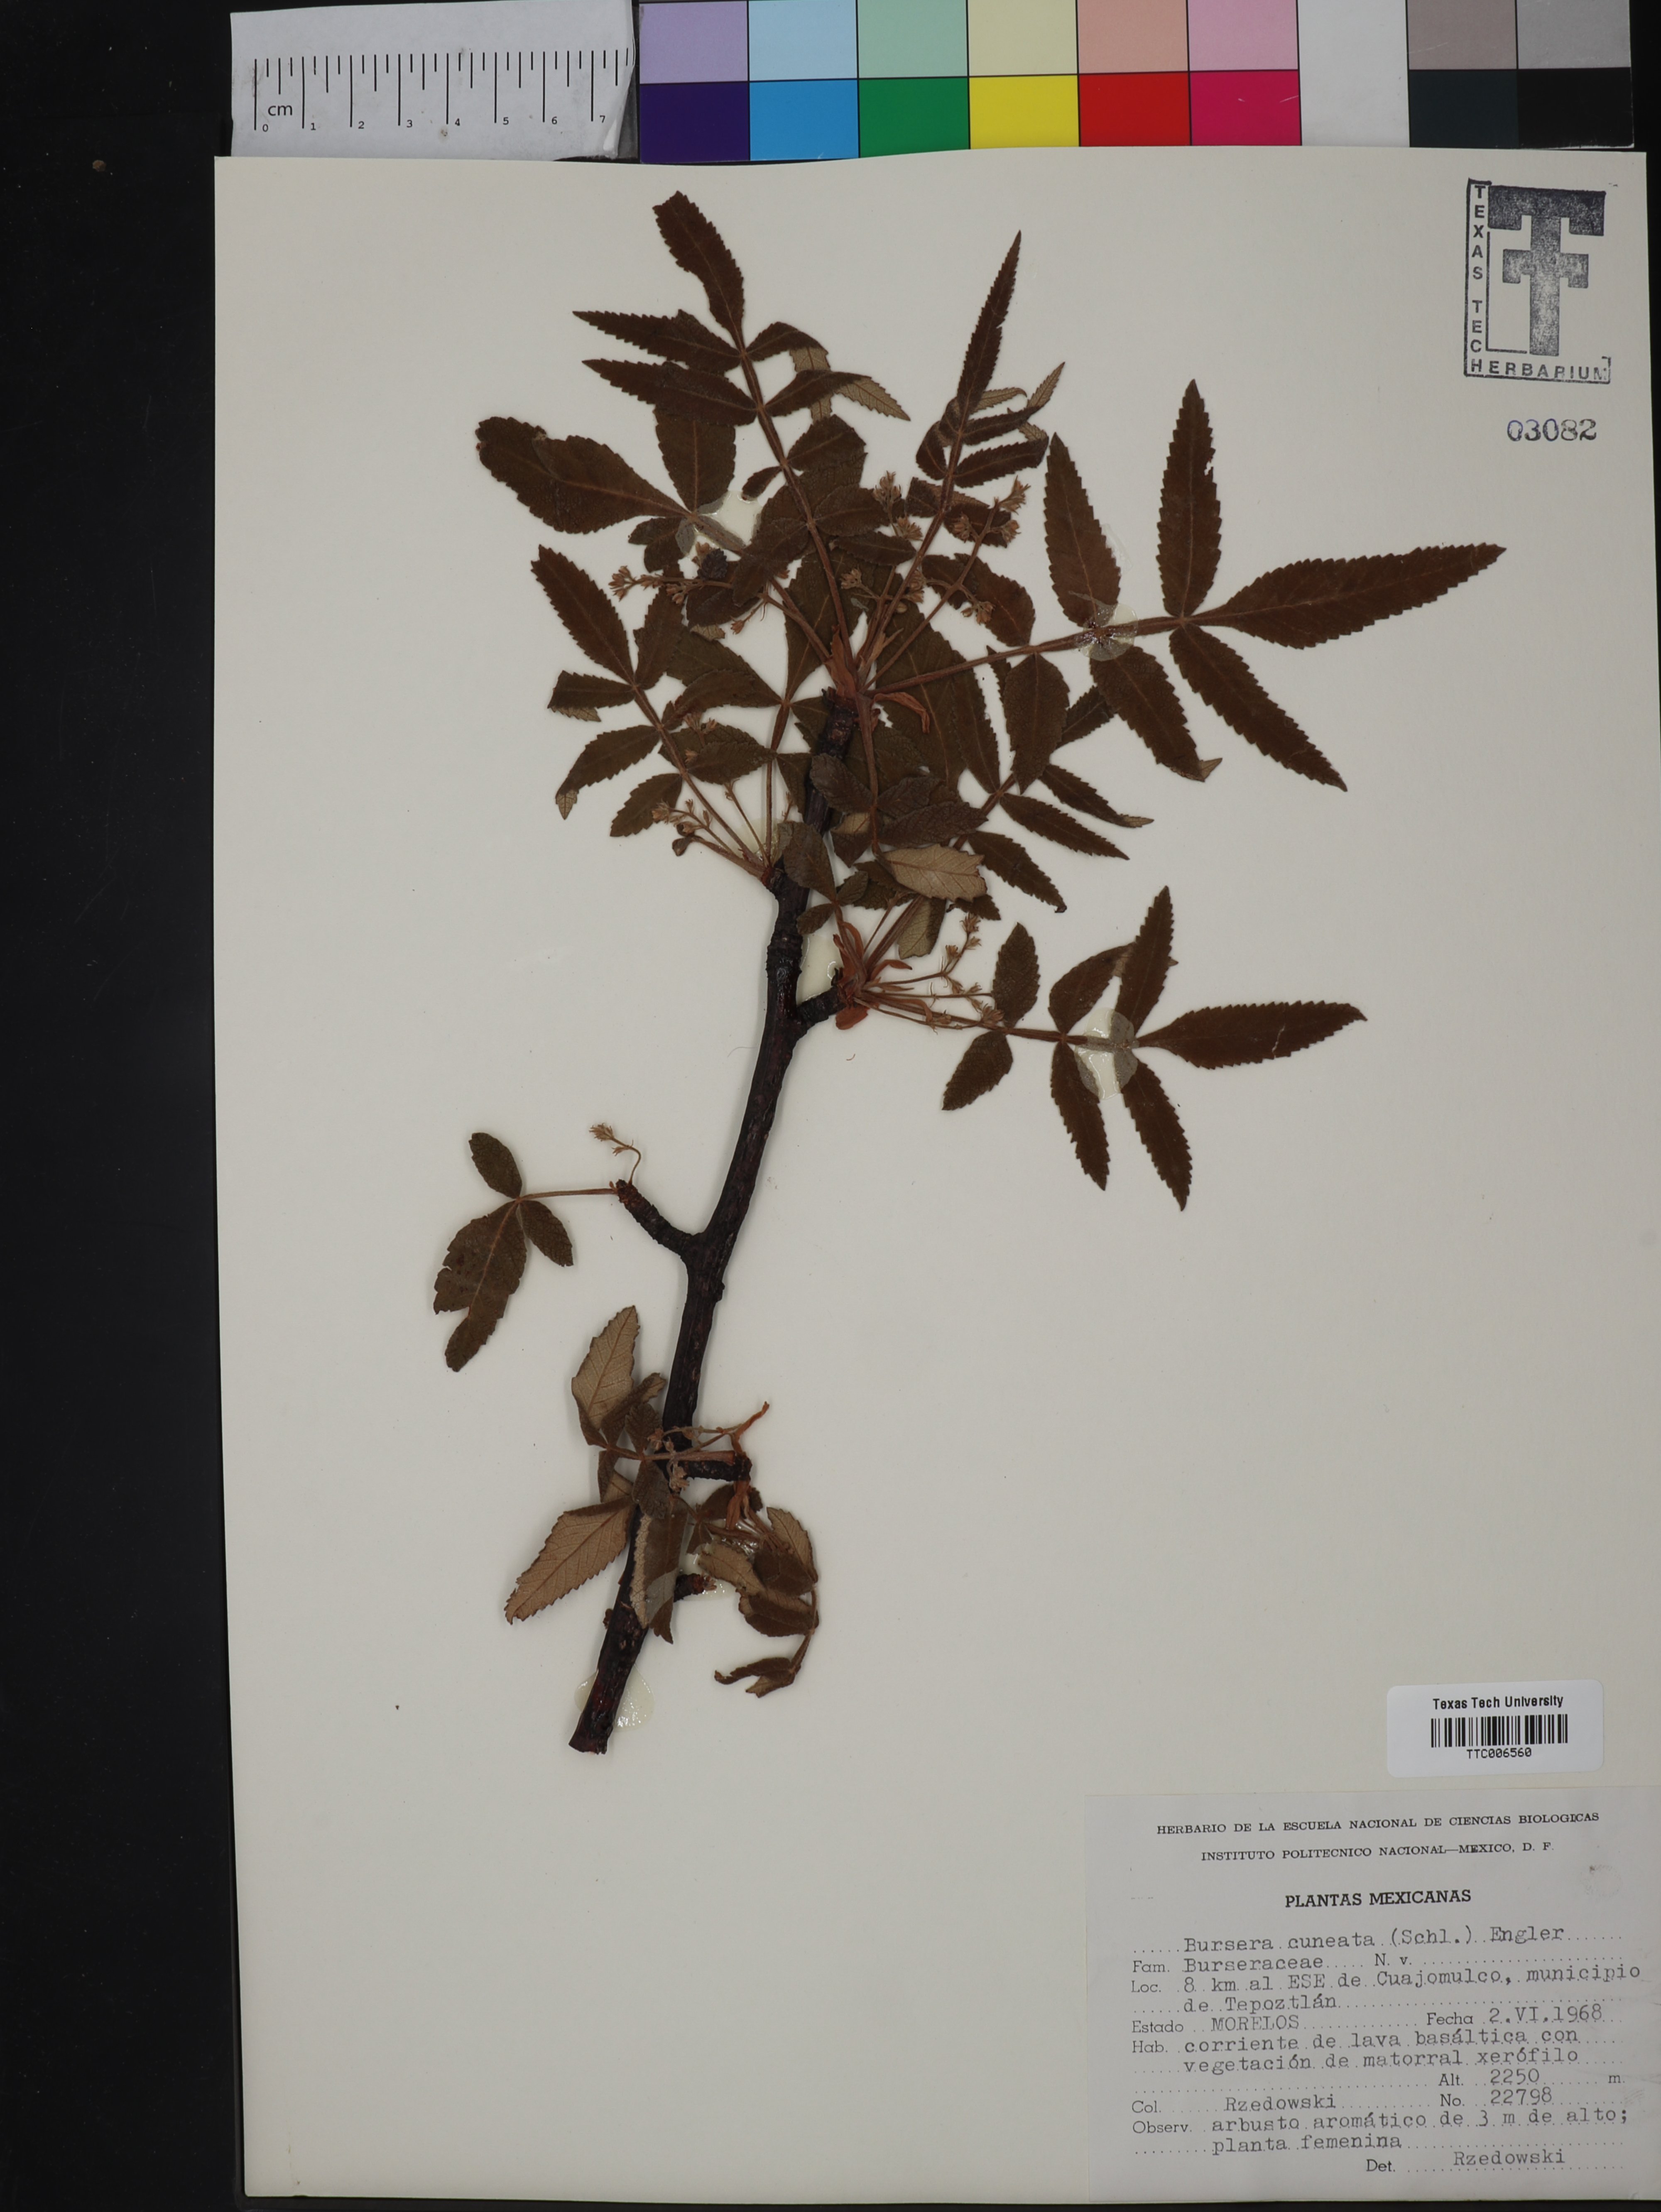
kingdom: Plantae
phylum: Tracheophyta
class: Magnoliopsida
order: Sapindales
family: Burseraceae
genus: Bursera
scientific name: Bursera cuneata
